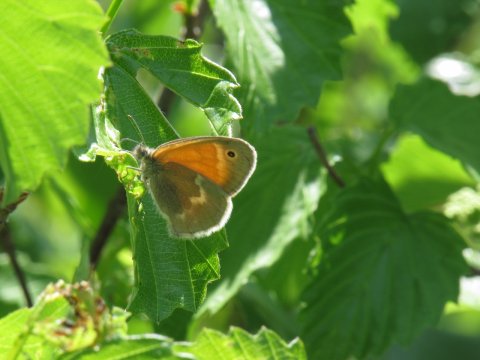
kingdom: Animalia
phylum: Arthropoda
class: Insecta
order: Lepidoptera
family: Nymphalidae
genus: Coenonympha
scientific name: Coenonympha tullia
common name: Large Heath
